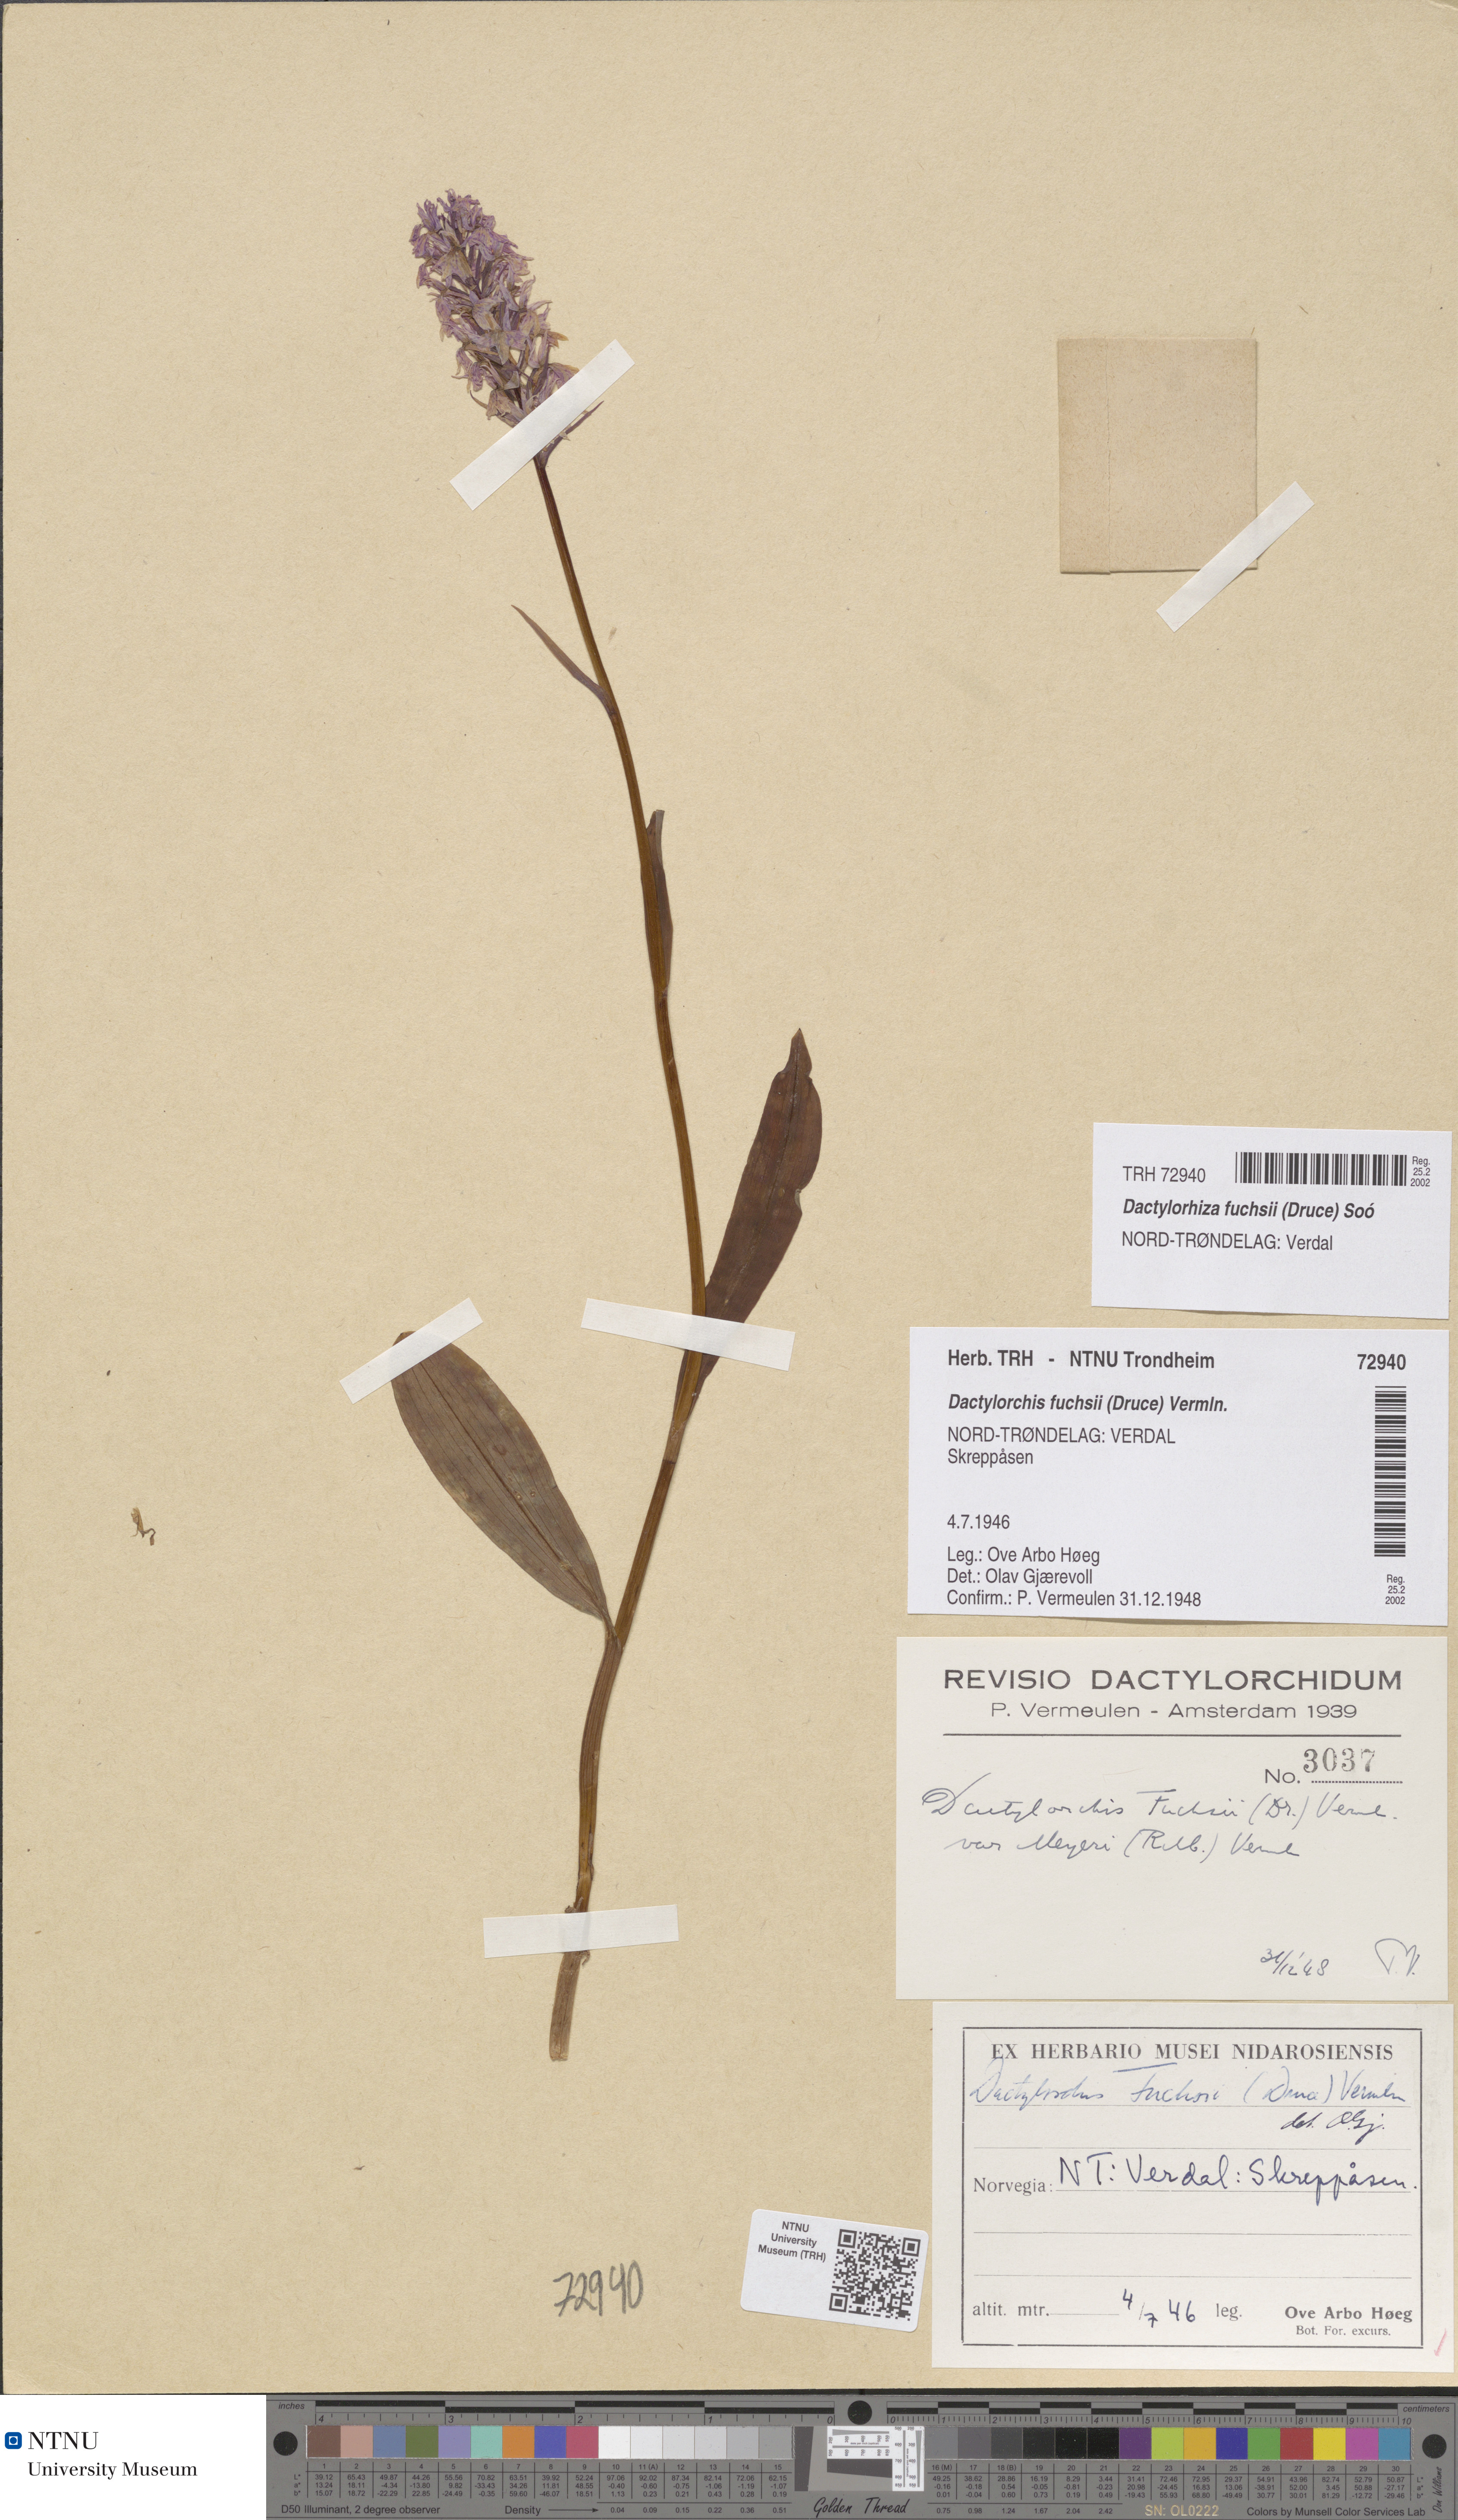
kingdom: Plantae
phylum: Tracheophyta
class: Liliopsida
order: Asparagales
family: Orchidaceae
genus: Dactylorhiza
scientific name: Dactylorhiza maculata
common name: Heath spotted-orchid
